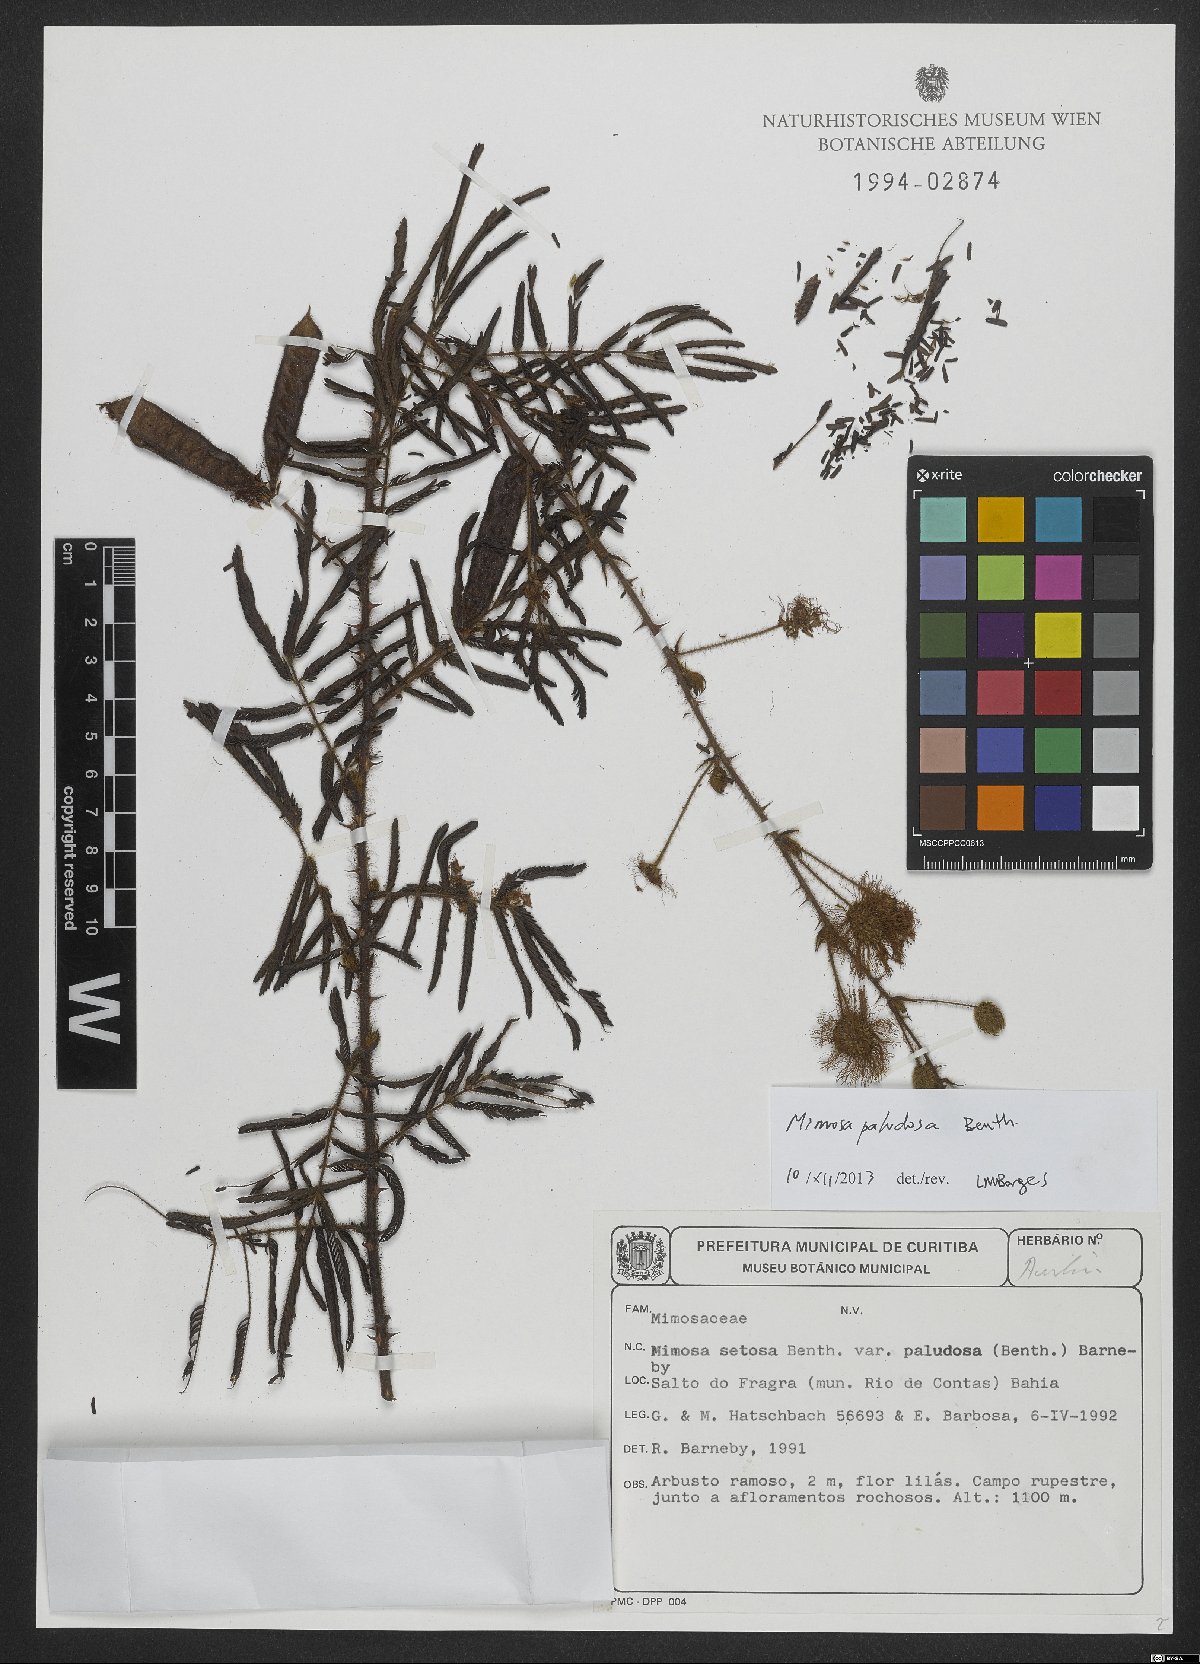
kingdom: Plantae
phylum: Tracheophyta
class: Magnoliopsida
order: Fabales
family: Fabaceae
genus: Mimosa
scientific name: Mimosa paludosa
